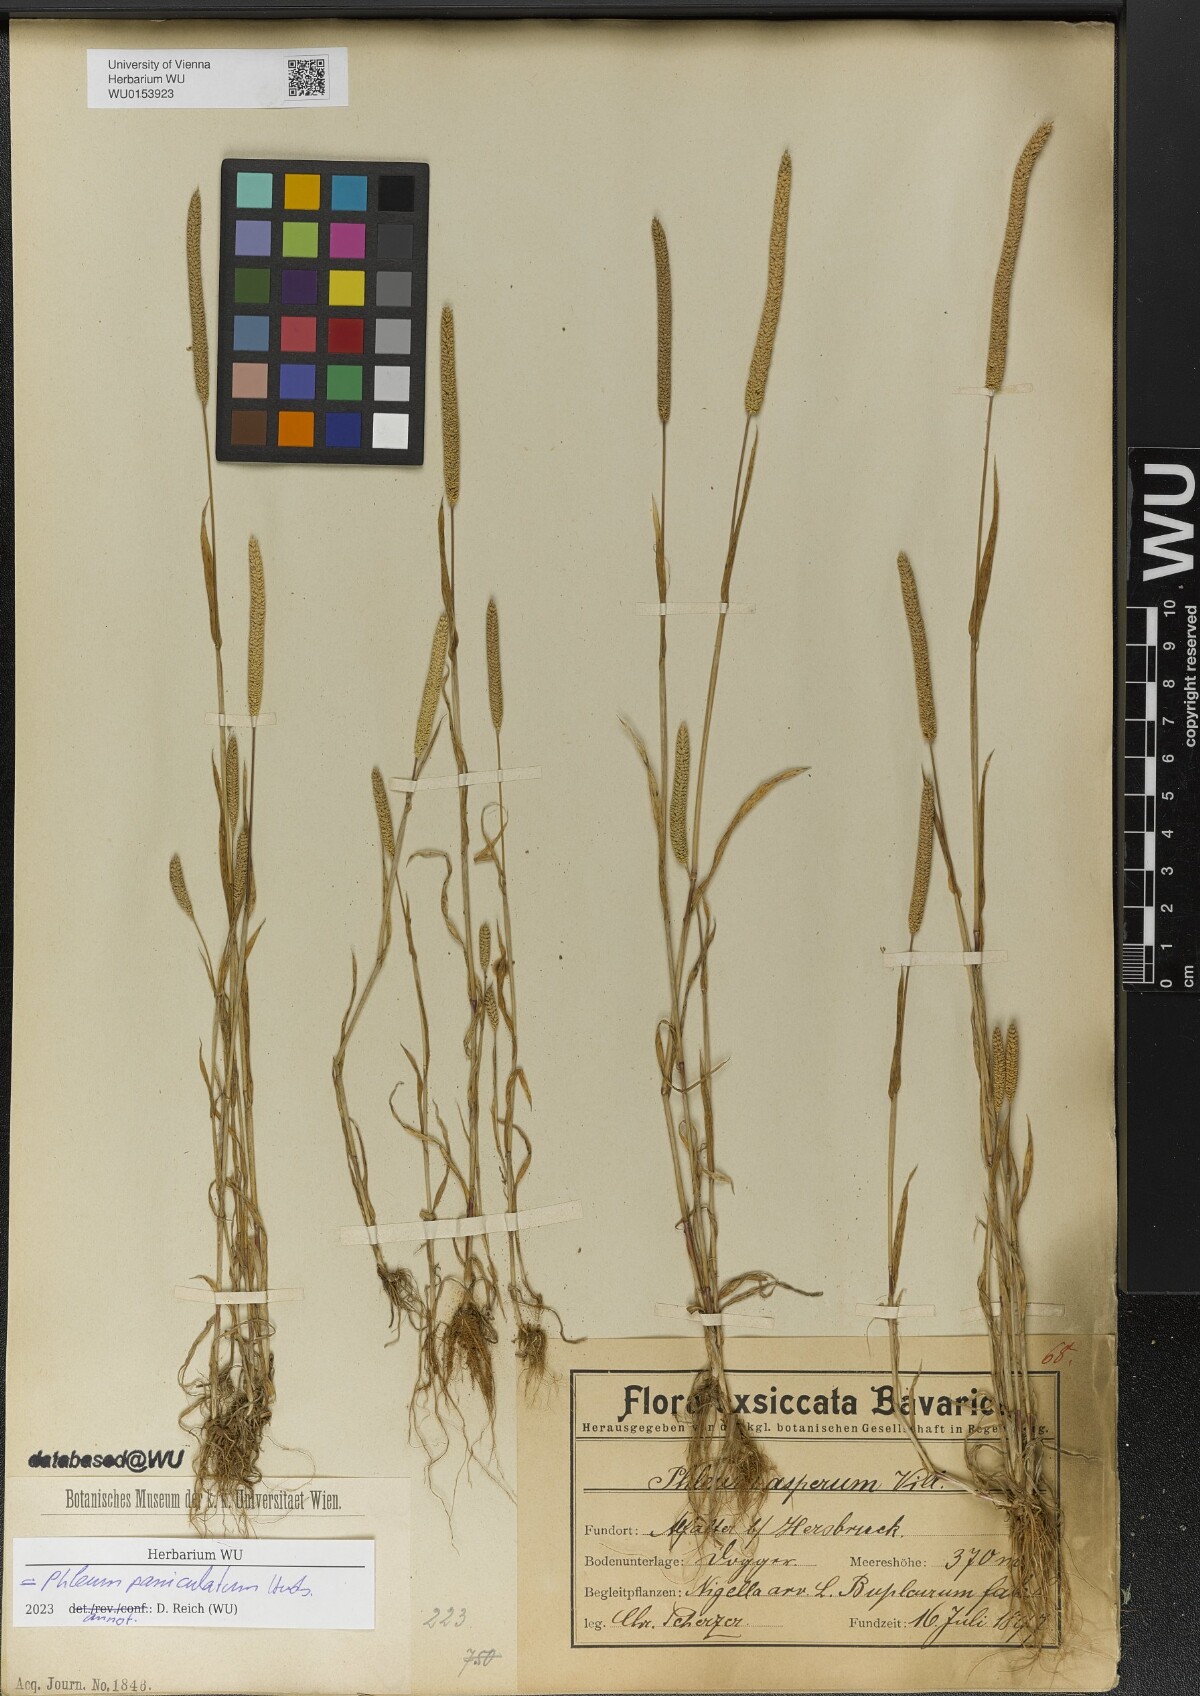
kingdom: Plantae
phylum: Tracheophyta
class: Liliopsida
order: Poales
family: Poaceae
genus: Phleum
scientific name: Phleum paniculatum
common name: British timothy
